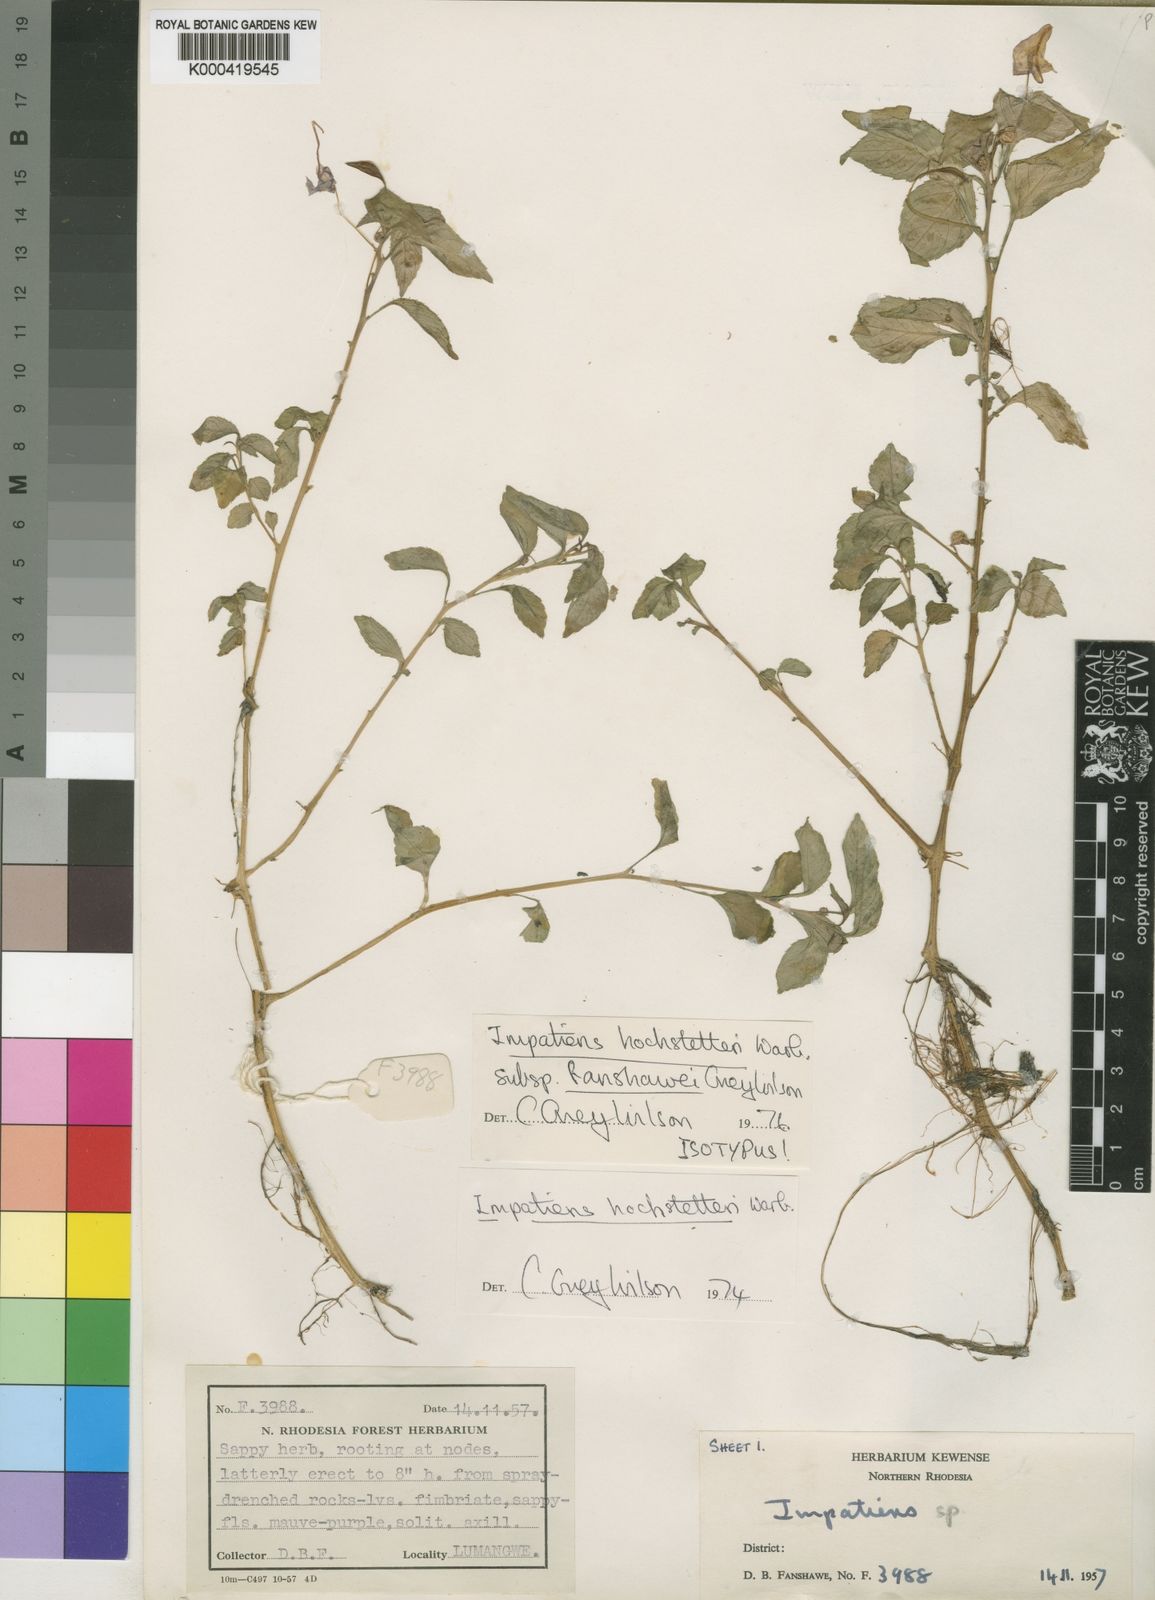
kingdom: Plantae
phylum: Tracheophyta
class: Magnoliopsida
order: Ericales
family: Balsaminaceae
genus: Impatiens
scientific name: Impatiens hochstetteri
